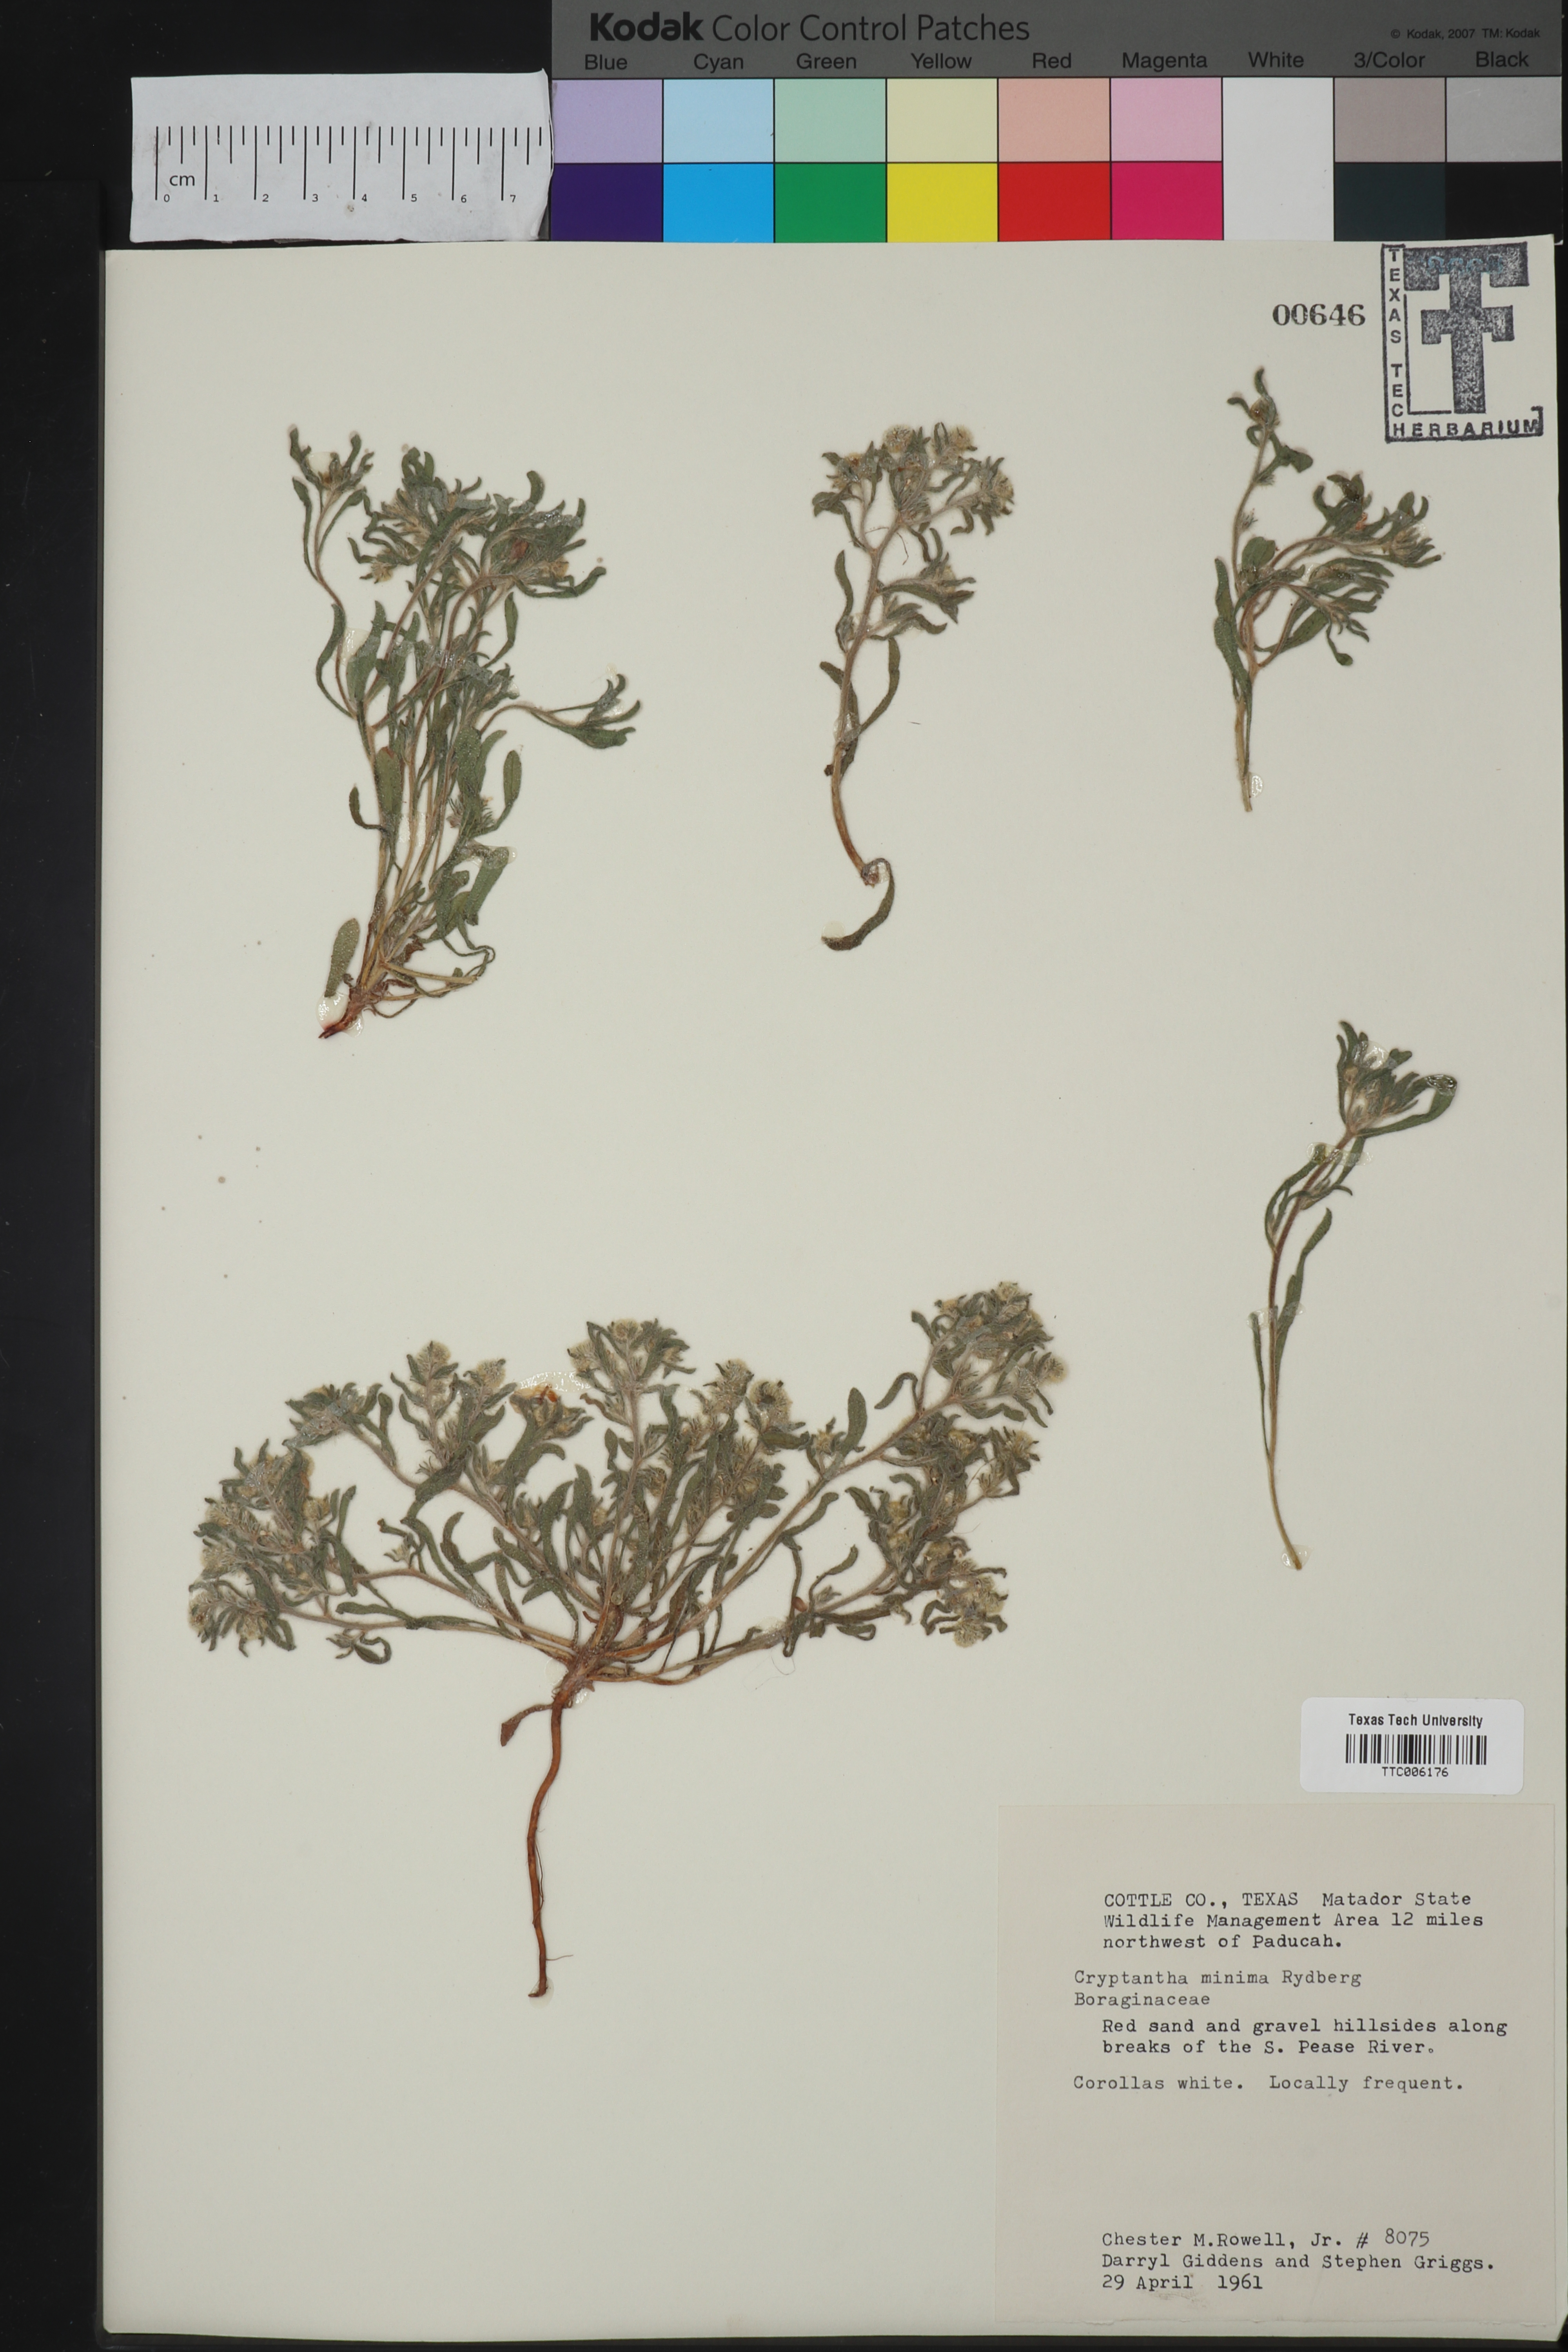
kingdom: Plantae
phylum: Tracheophyta
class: Magnoliopsida
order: Boraginales
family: Boraginaceae
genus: Cryptantha
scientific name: Cryptantha minima
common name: Little cat's-eye
